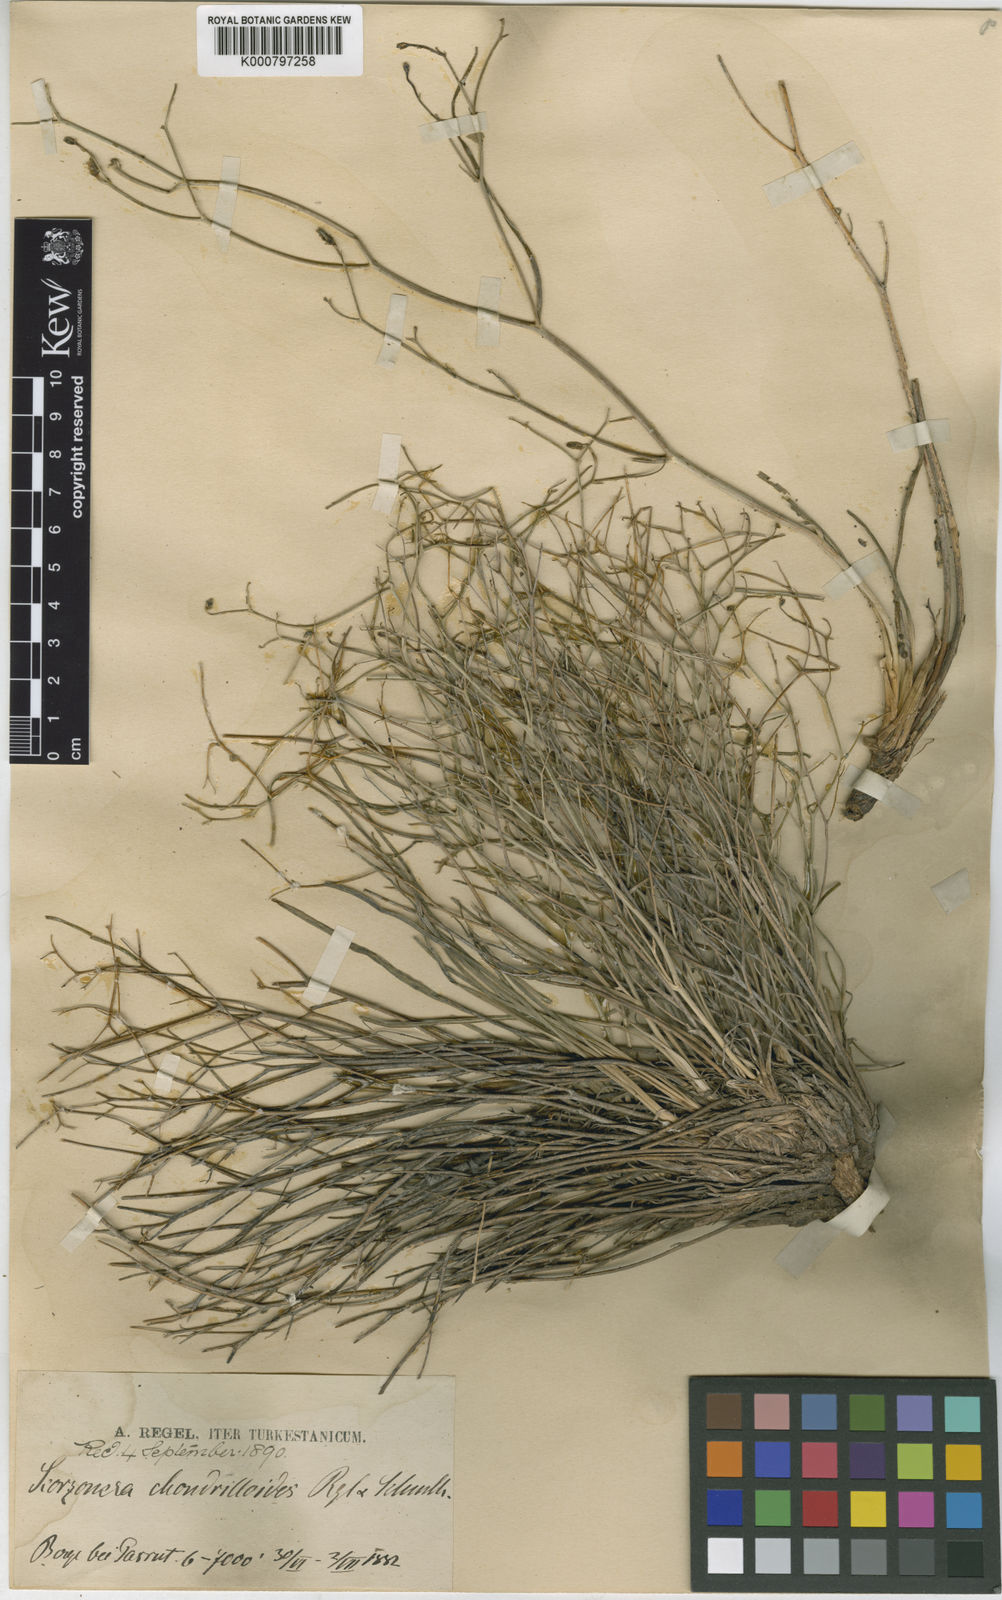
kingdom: Plantae
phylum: Tracheophyta
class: Magnoliopsida
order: Asterales
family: Asteraceae
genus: Ramaliella
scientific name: Ramaliella acanthoclada
